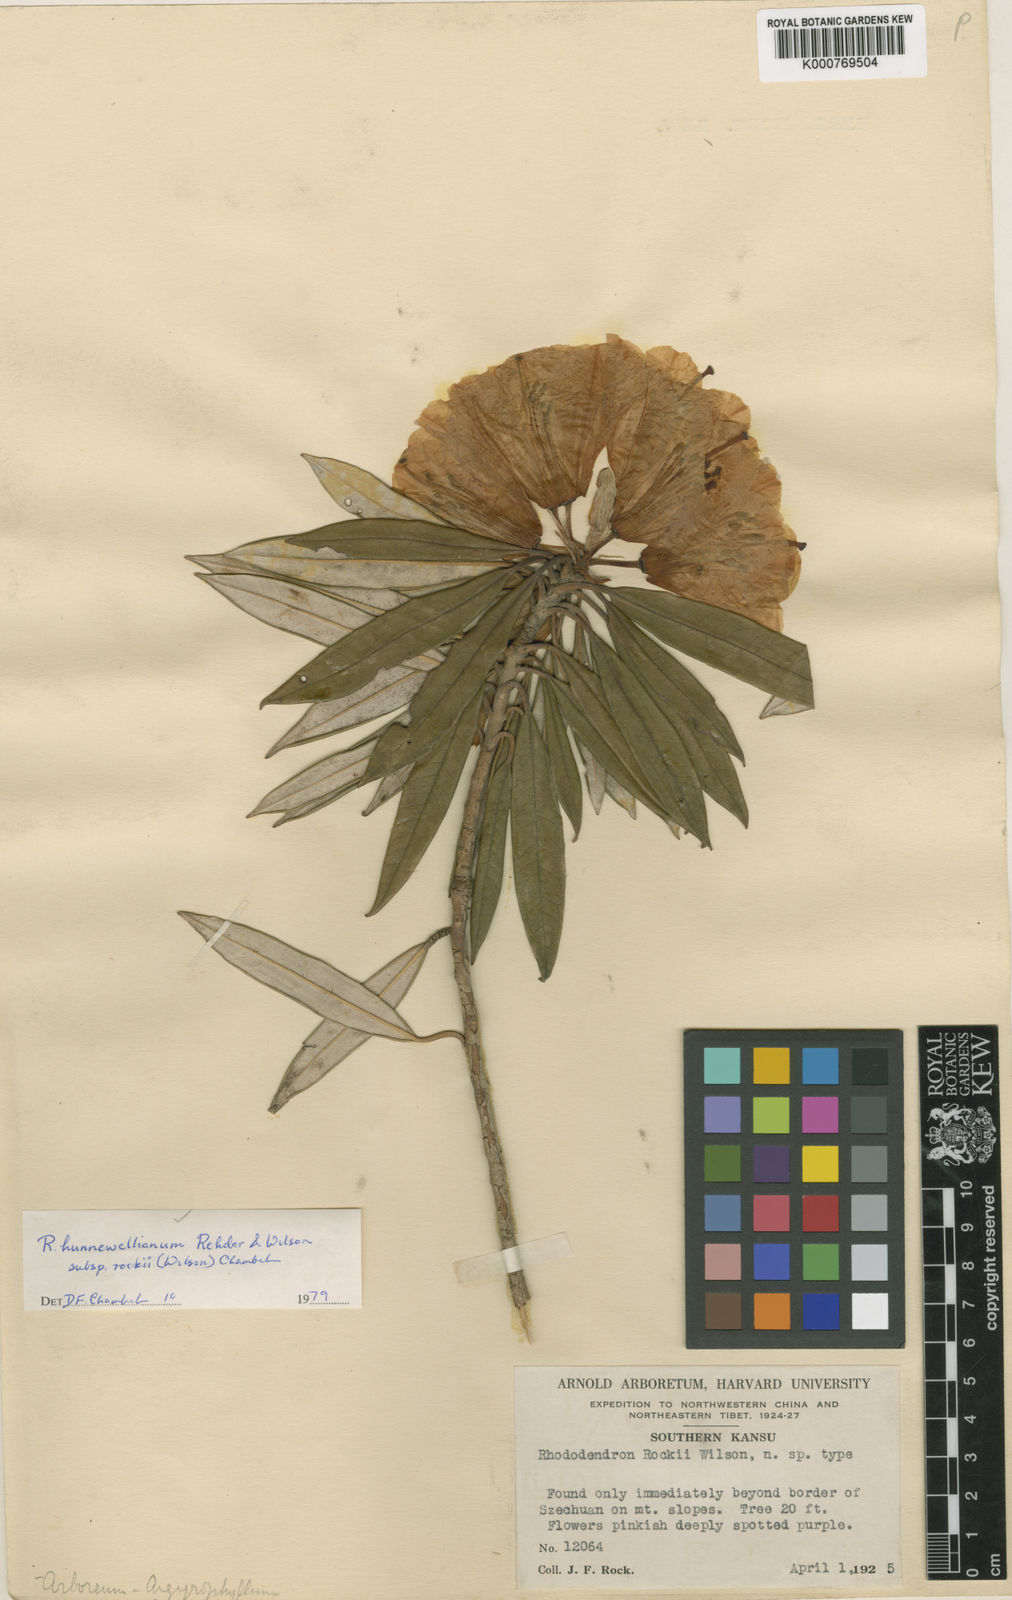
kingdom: Plantae
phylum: Tracheophyta
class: Magnoliopsida
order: Ericales
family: Ericaceae
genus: Rhododendron
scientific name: Rhododendron hunnewellianum
